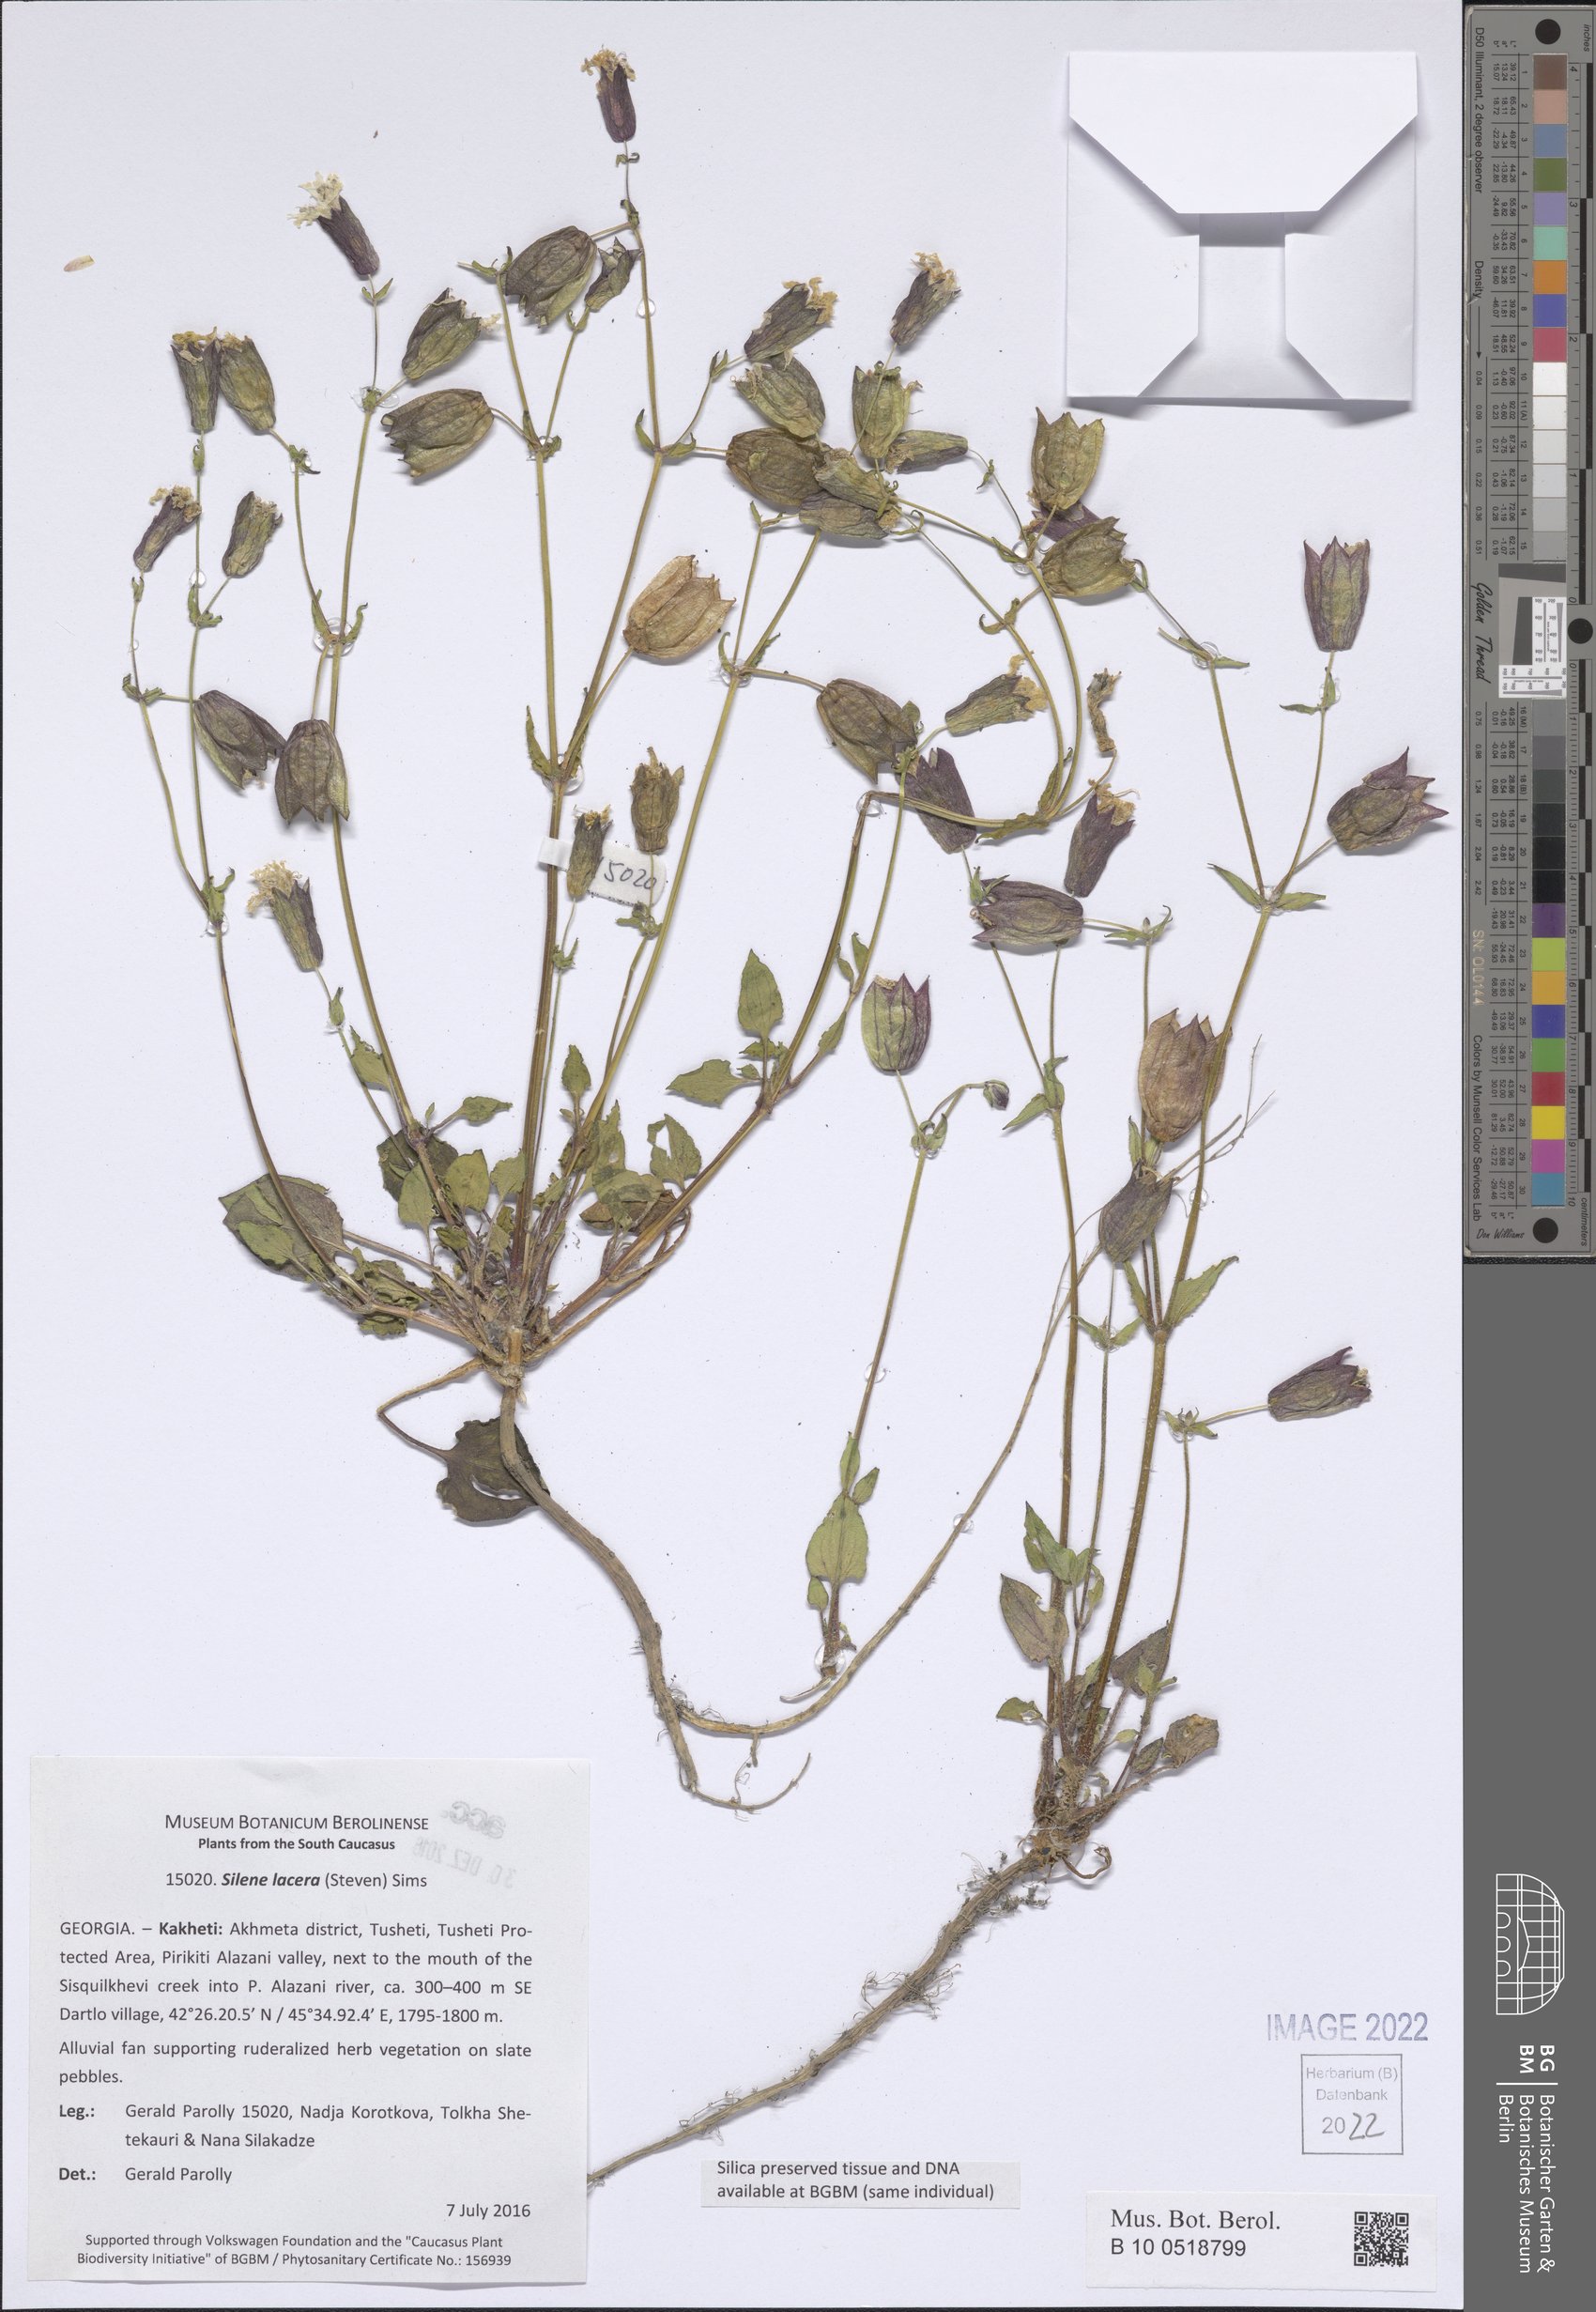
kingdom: Plantae
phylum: Tracheophyta
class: Magnoliopsida
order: Caryophyllales
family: Caryophyllaceae
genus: Silene
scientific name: Silene lacera
